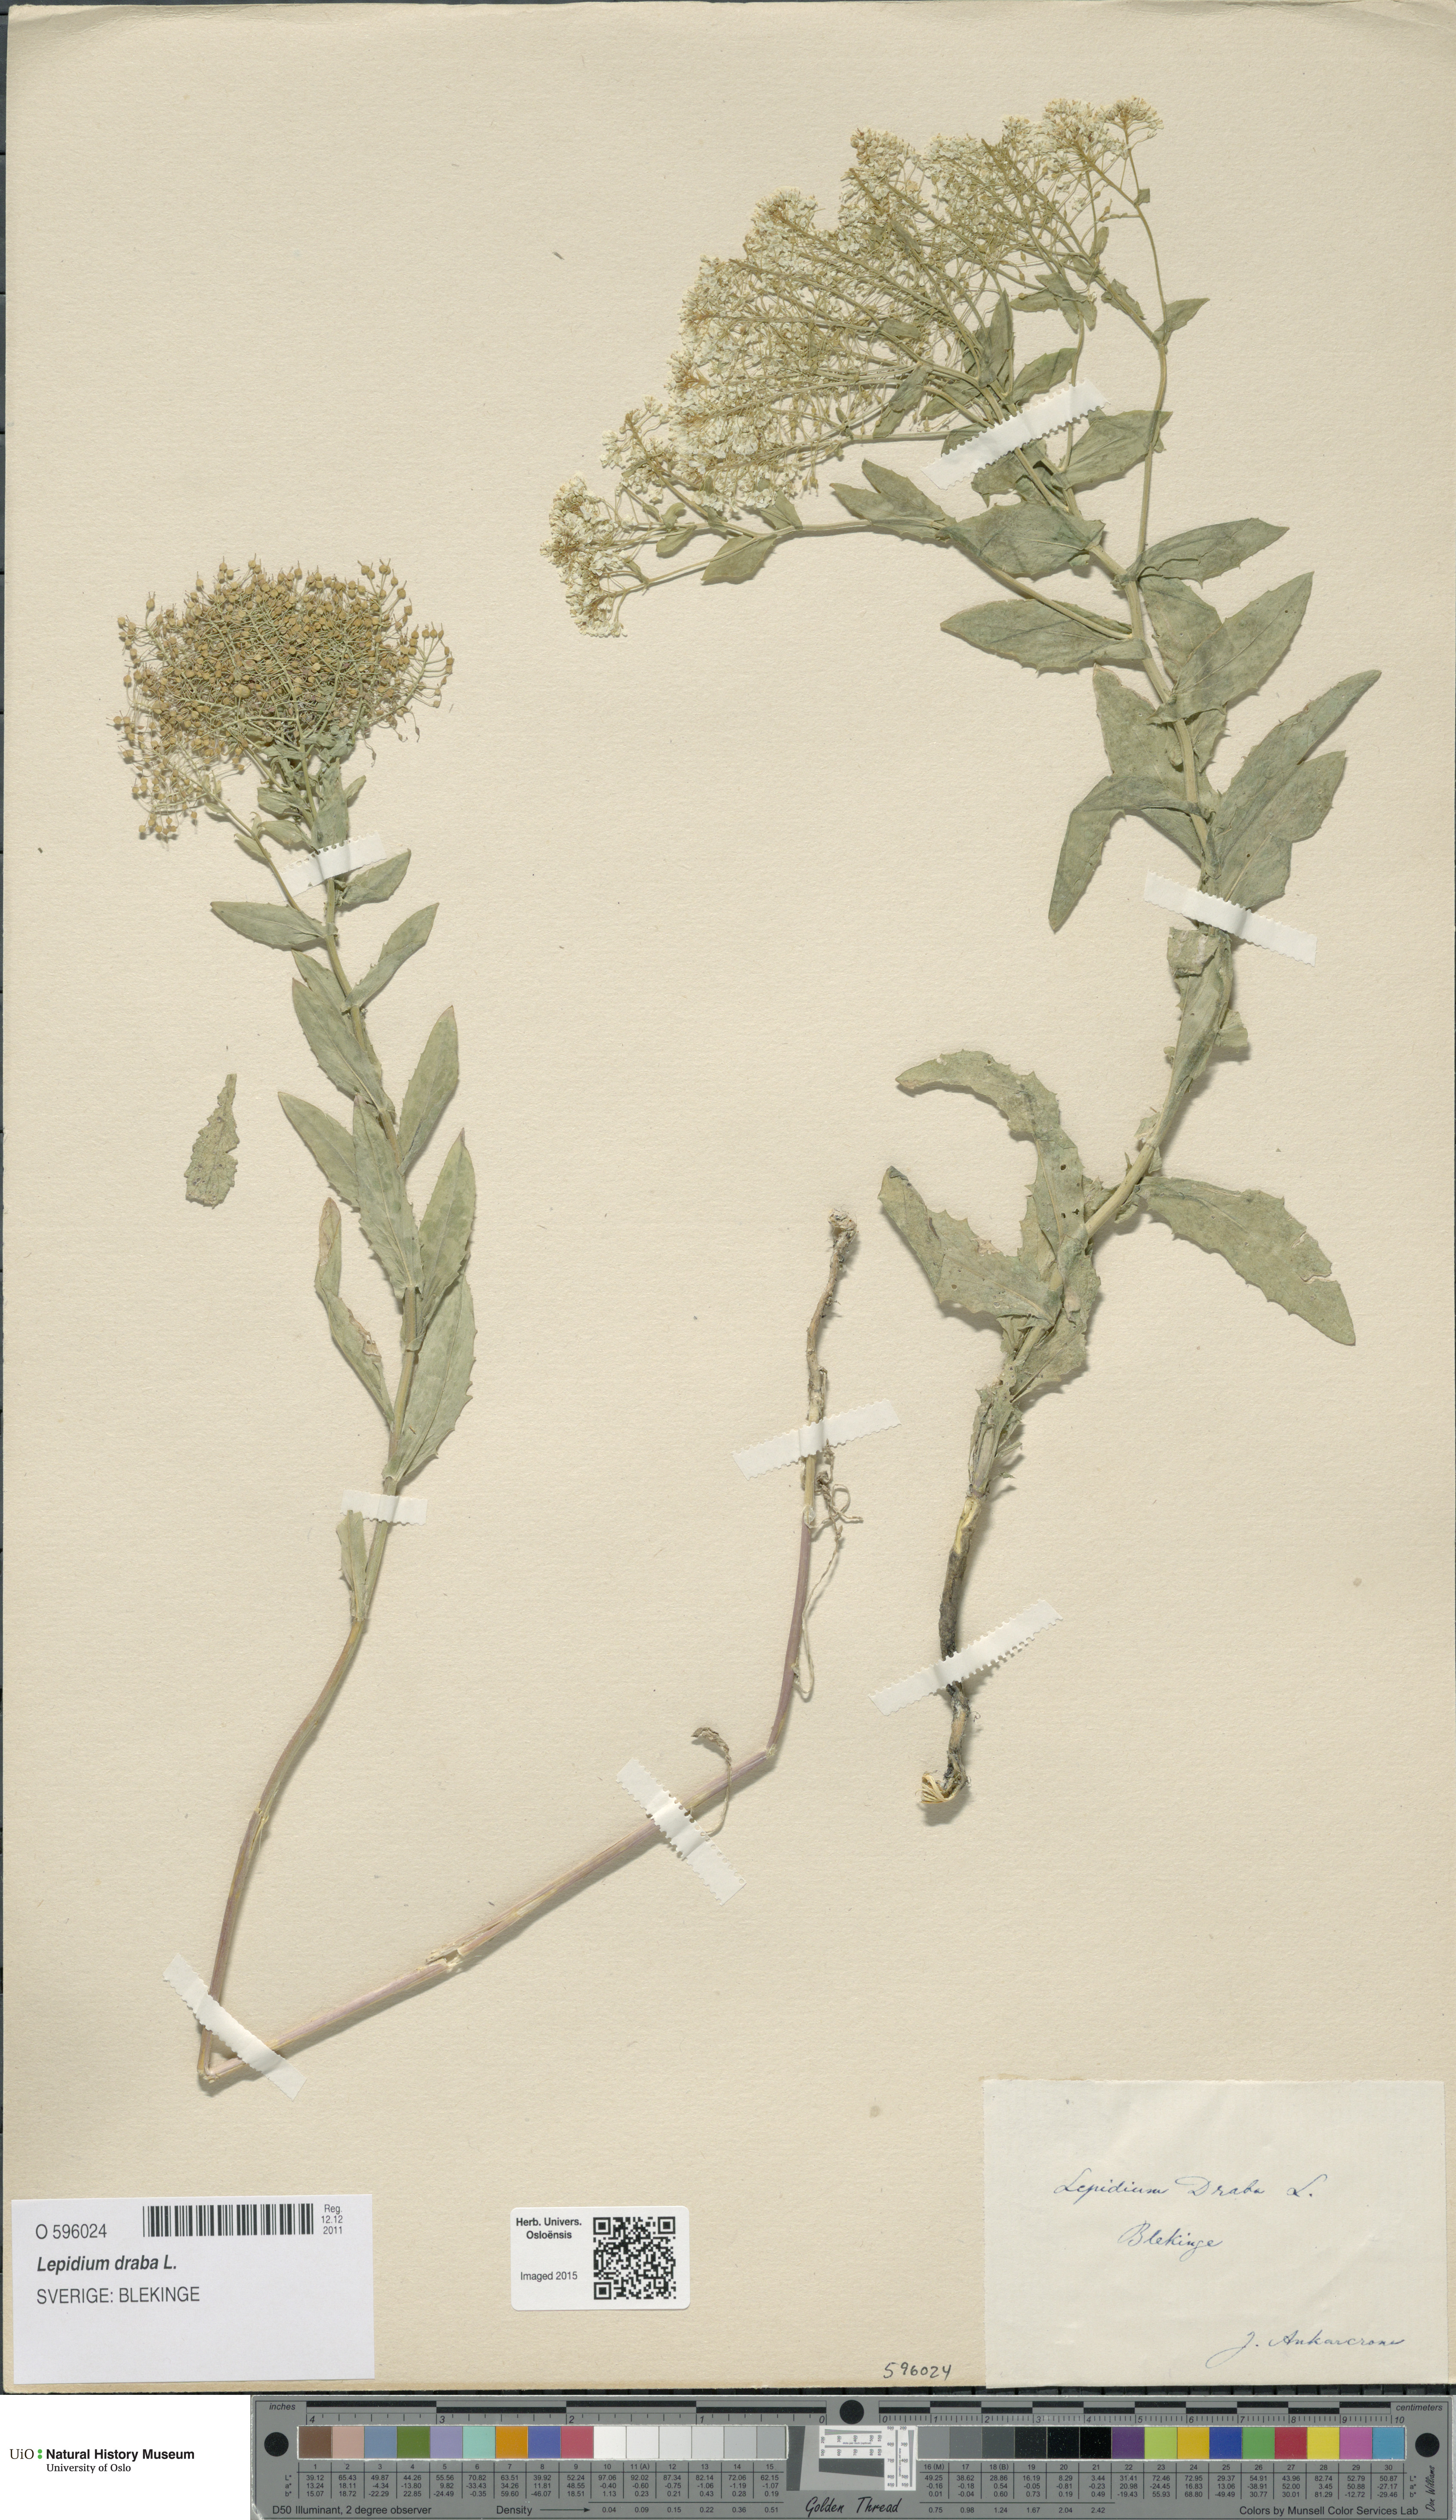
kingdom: Plantae
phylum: Tracheophyta
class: Magnoliopsida
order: Brassicales
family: Brassicaceae
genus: Lepidium
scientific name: Lepidium draba
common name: Hoary cress
